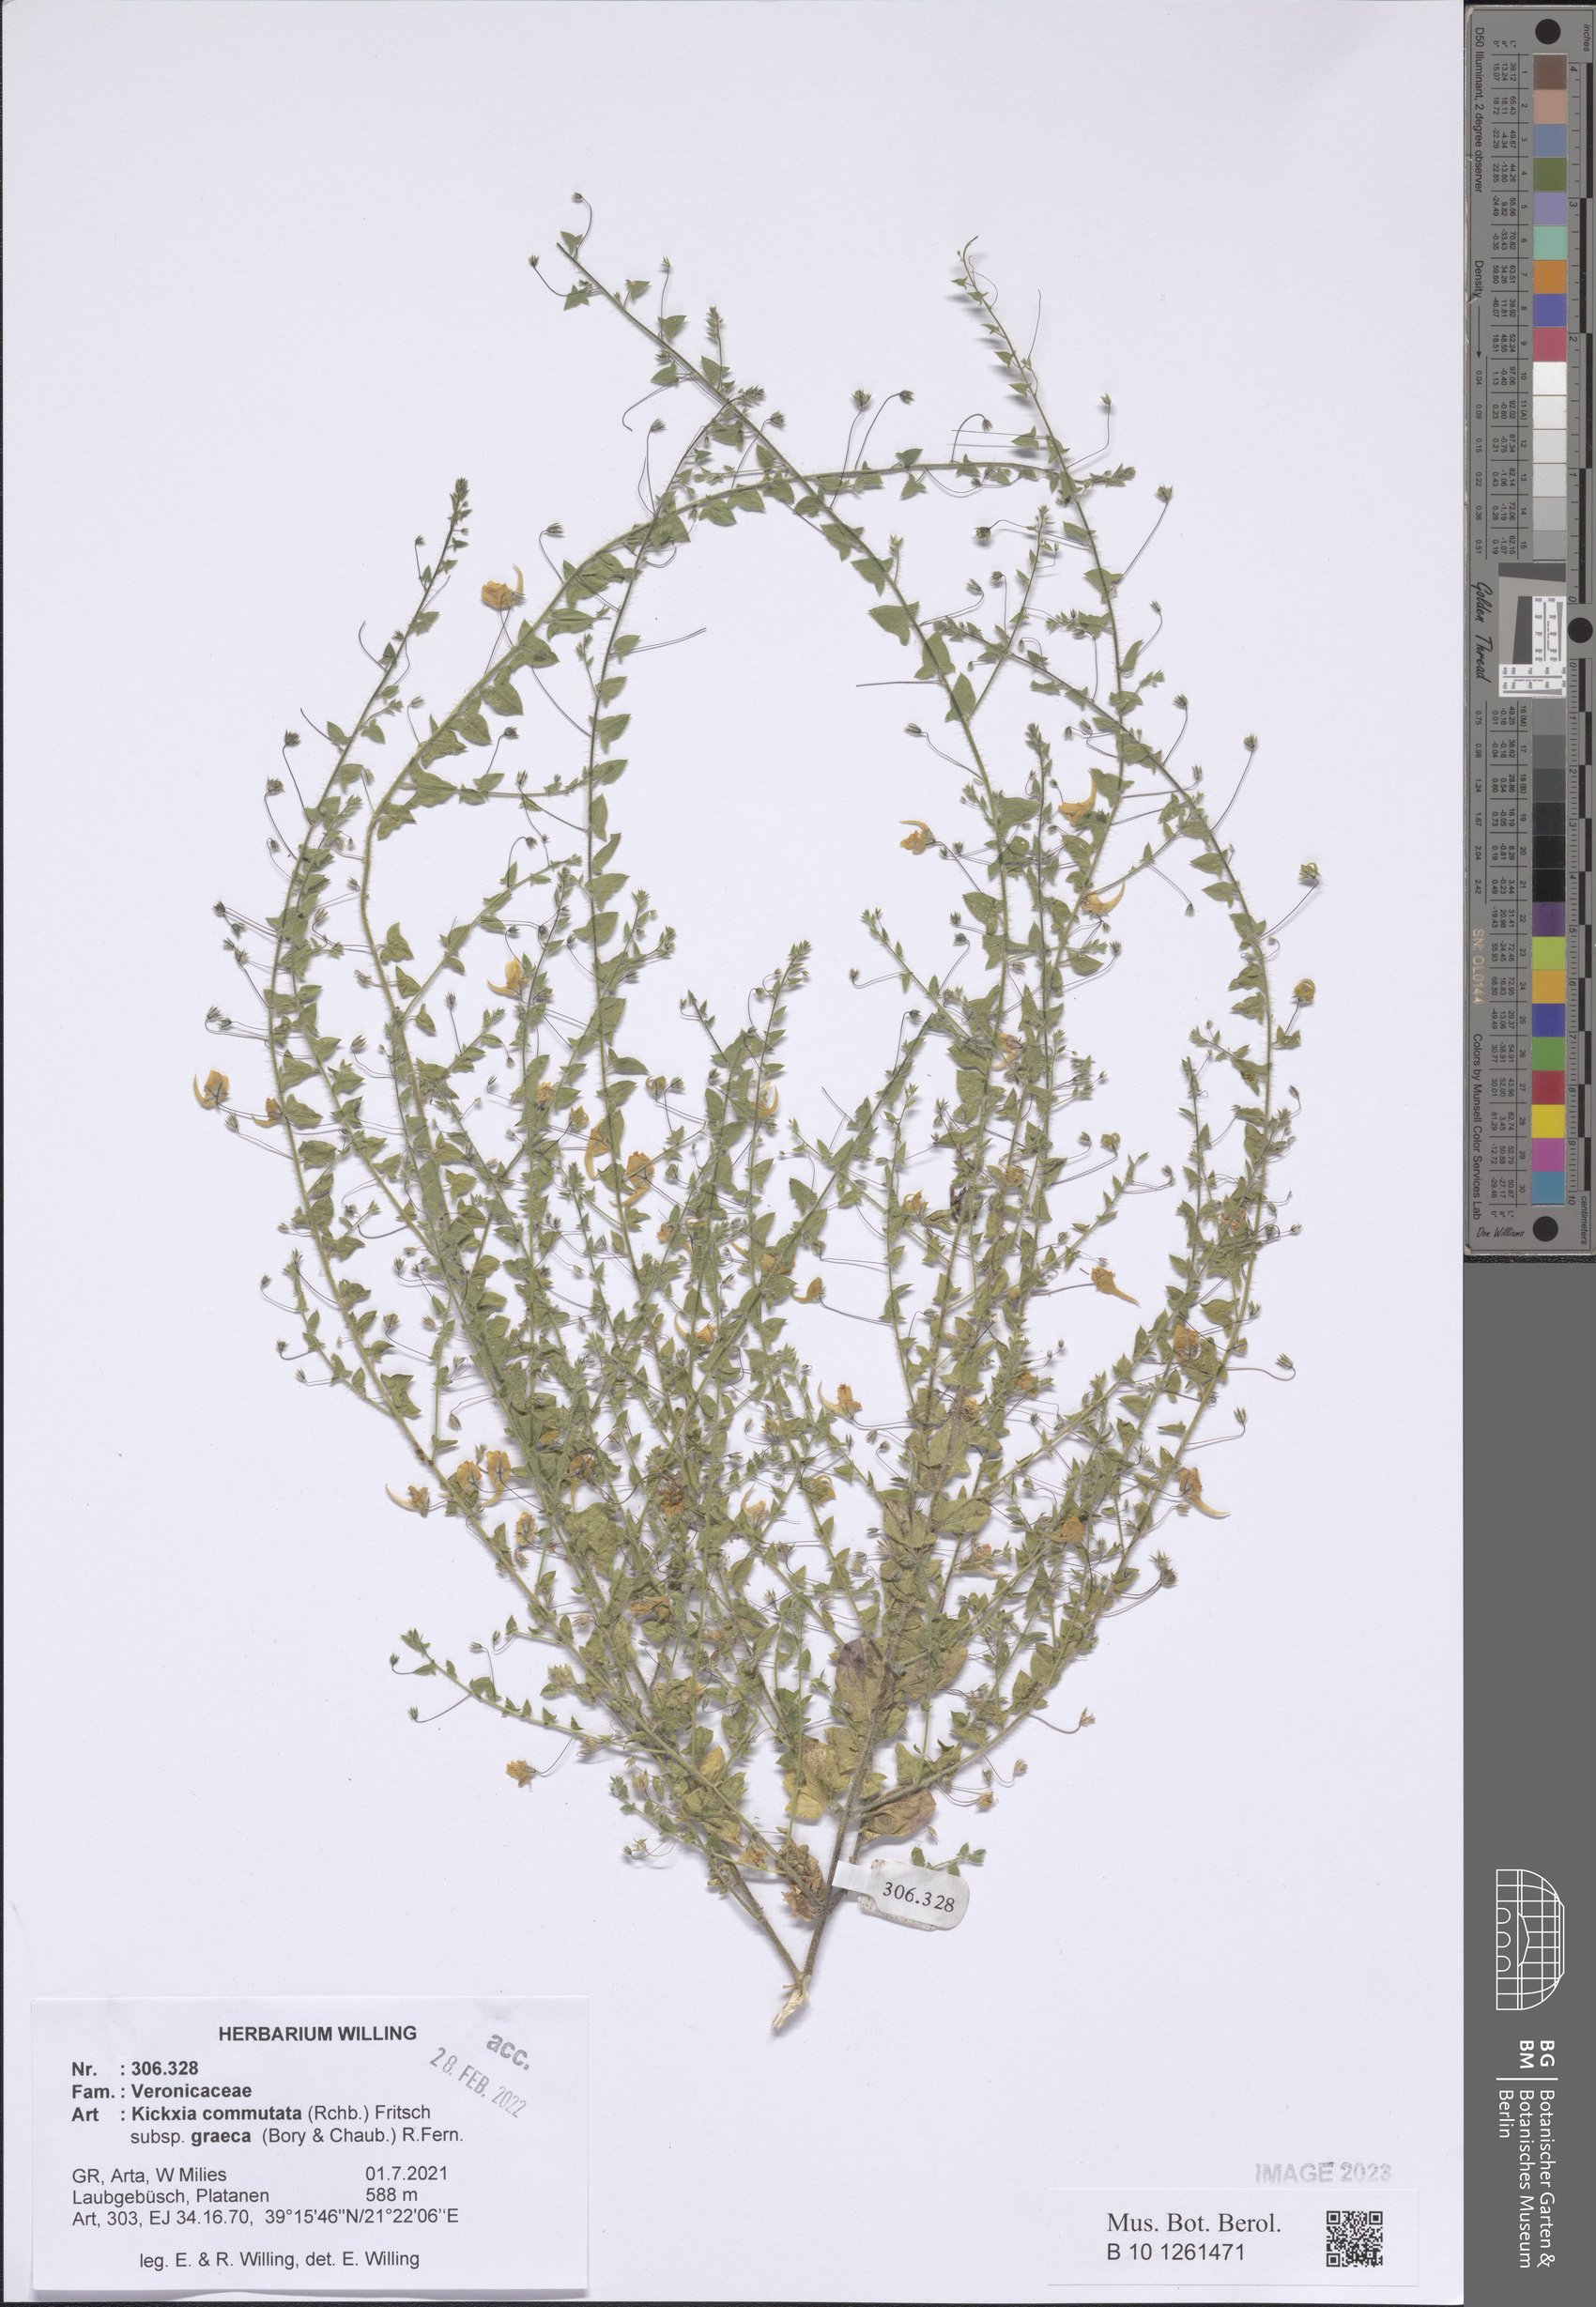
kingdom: Plantae
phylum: Tracheophyta
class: Magnoliopsida
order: Lamiales
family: Plantaginaceae
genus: Kickxia
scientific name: Kickxia commutata
